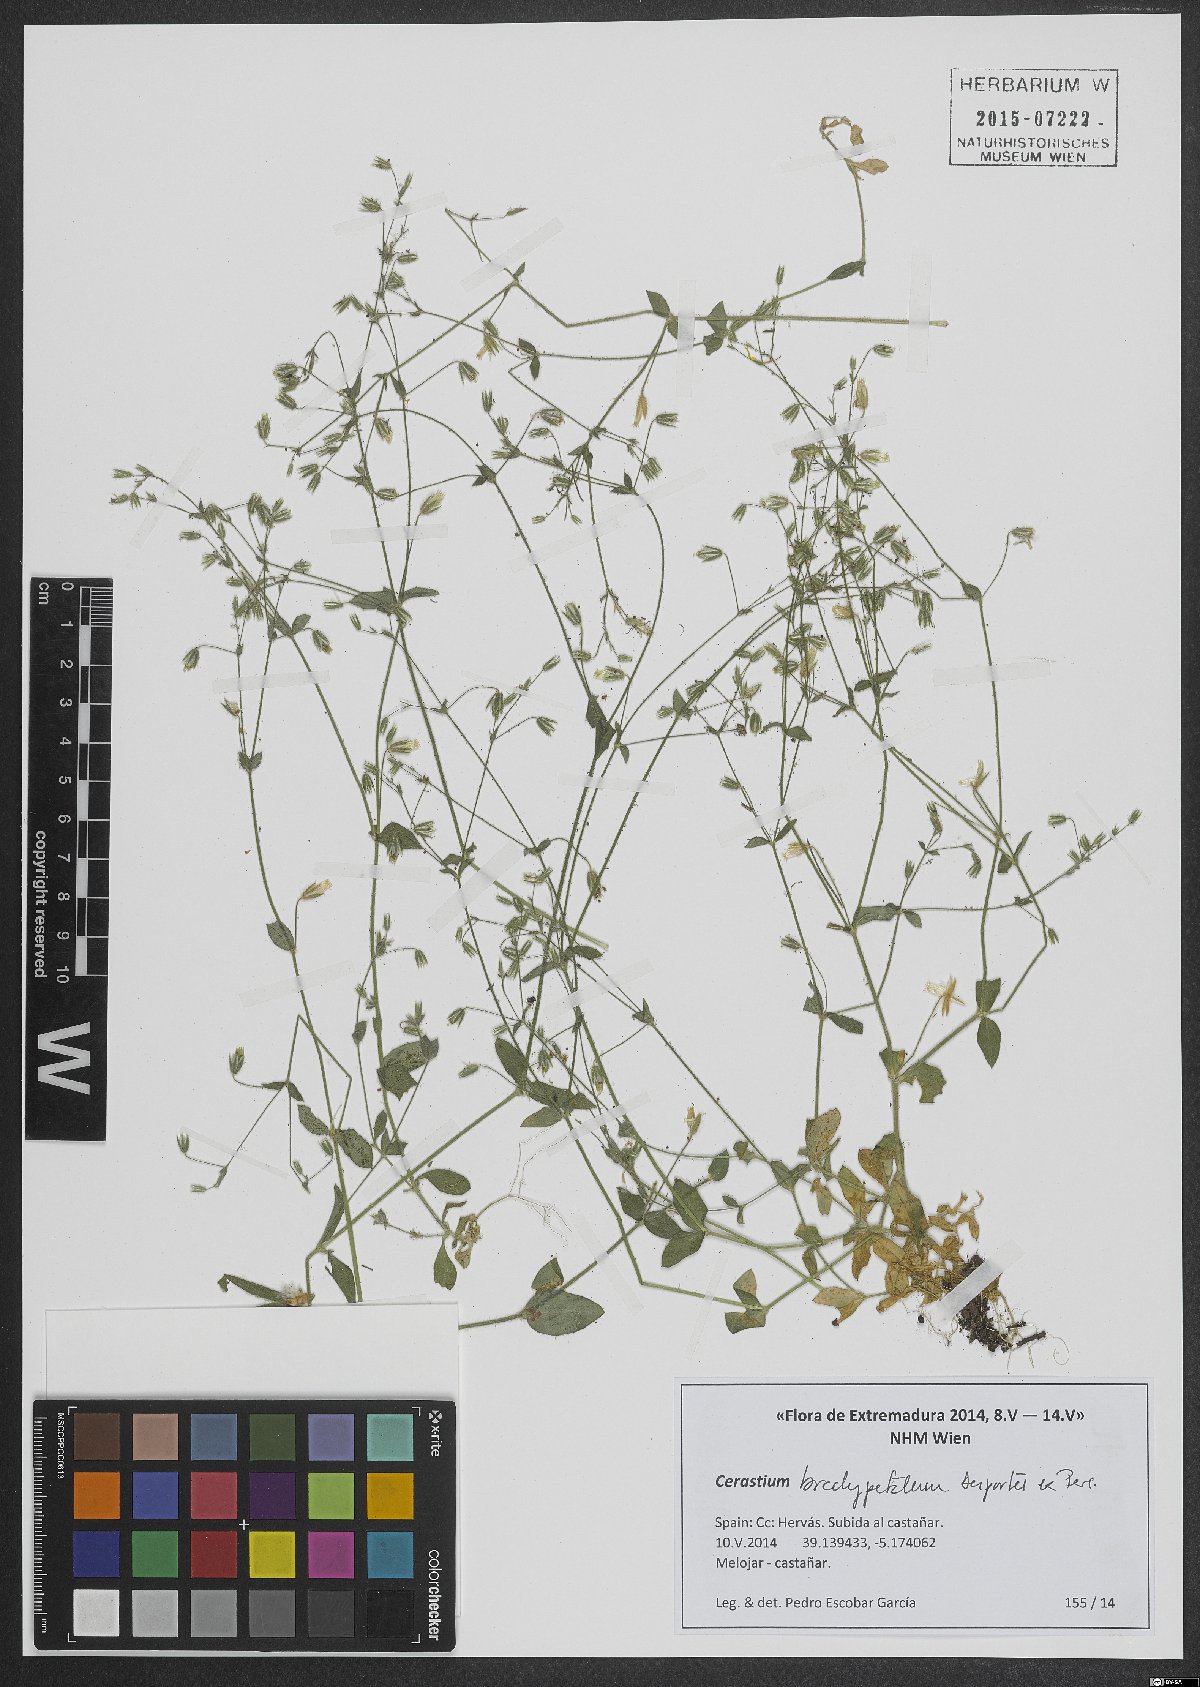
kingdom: Plantae
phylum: Tracheophyta
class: Magnoliopsida
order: Caryophyllales
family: Caryophyllaceae
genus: Cerastium
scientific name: Cerastium brachypetalum
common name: Grey mouse-ear
